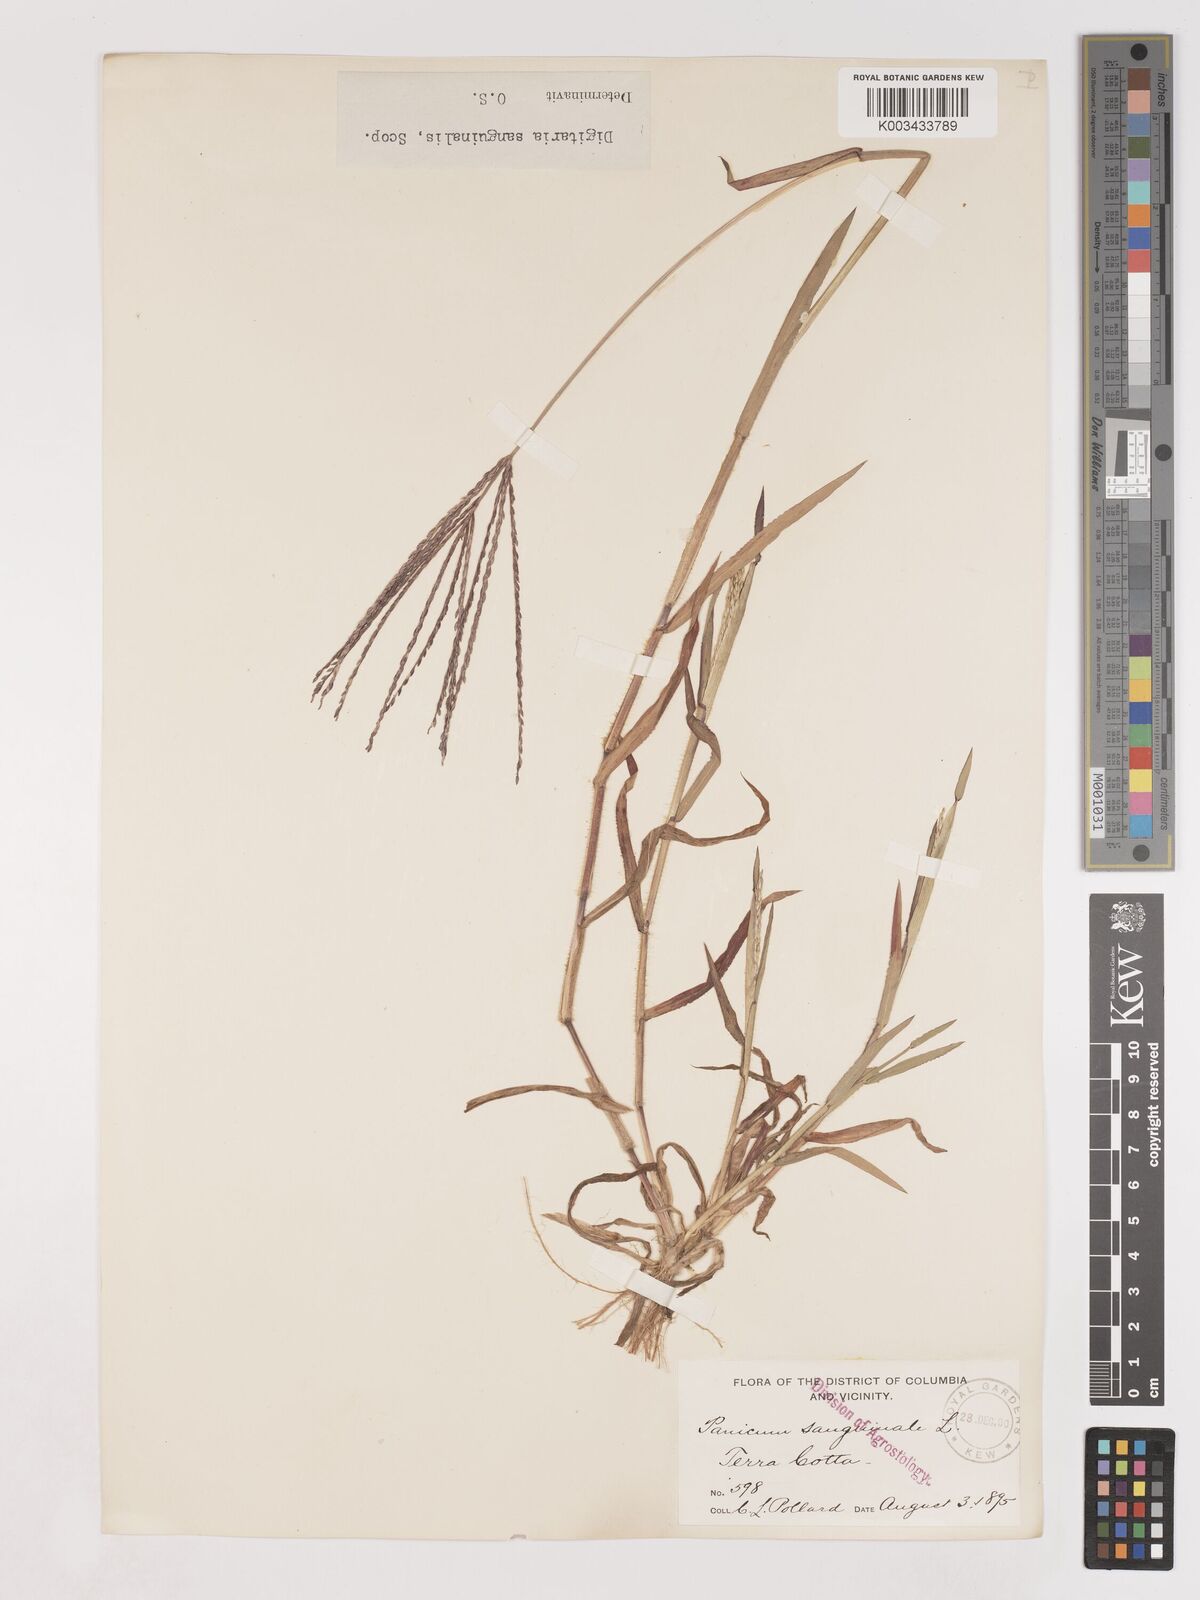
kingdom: Plantae
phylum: Tracheophyta
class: Liliopsida
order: Poales
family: Poaceae
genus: Digitaria
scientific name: Digitaria sanguinalis
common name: Hairy crabgrass
